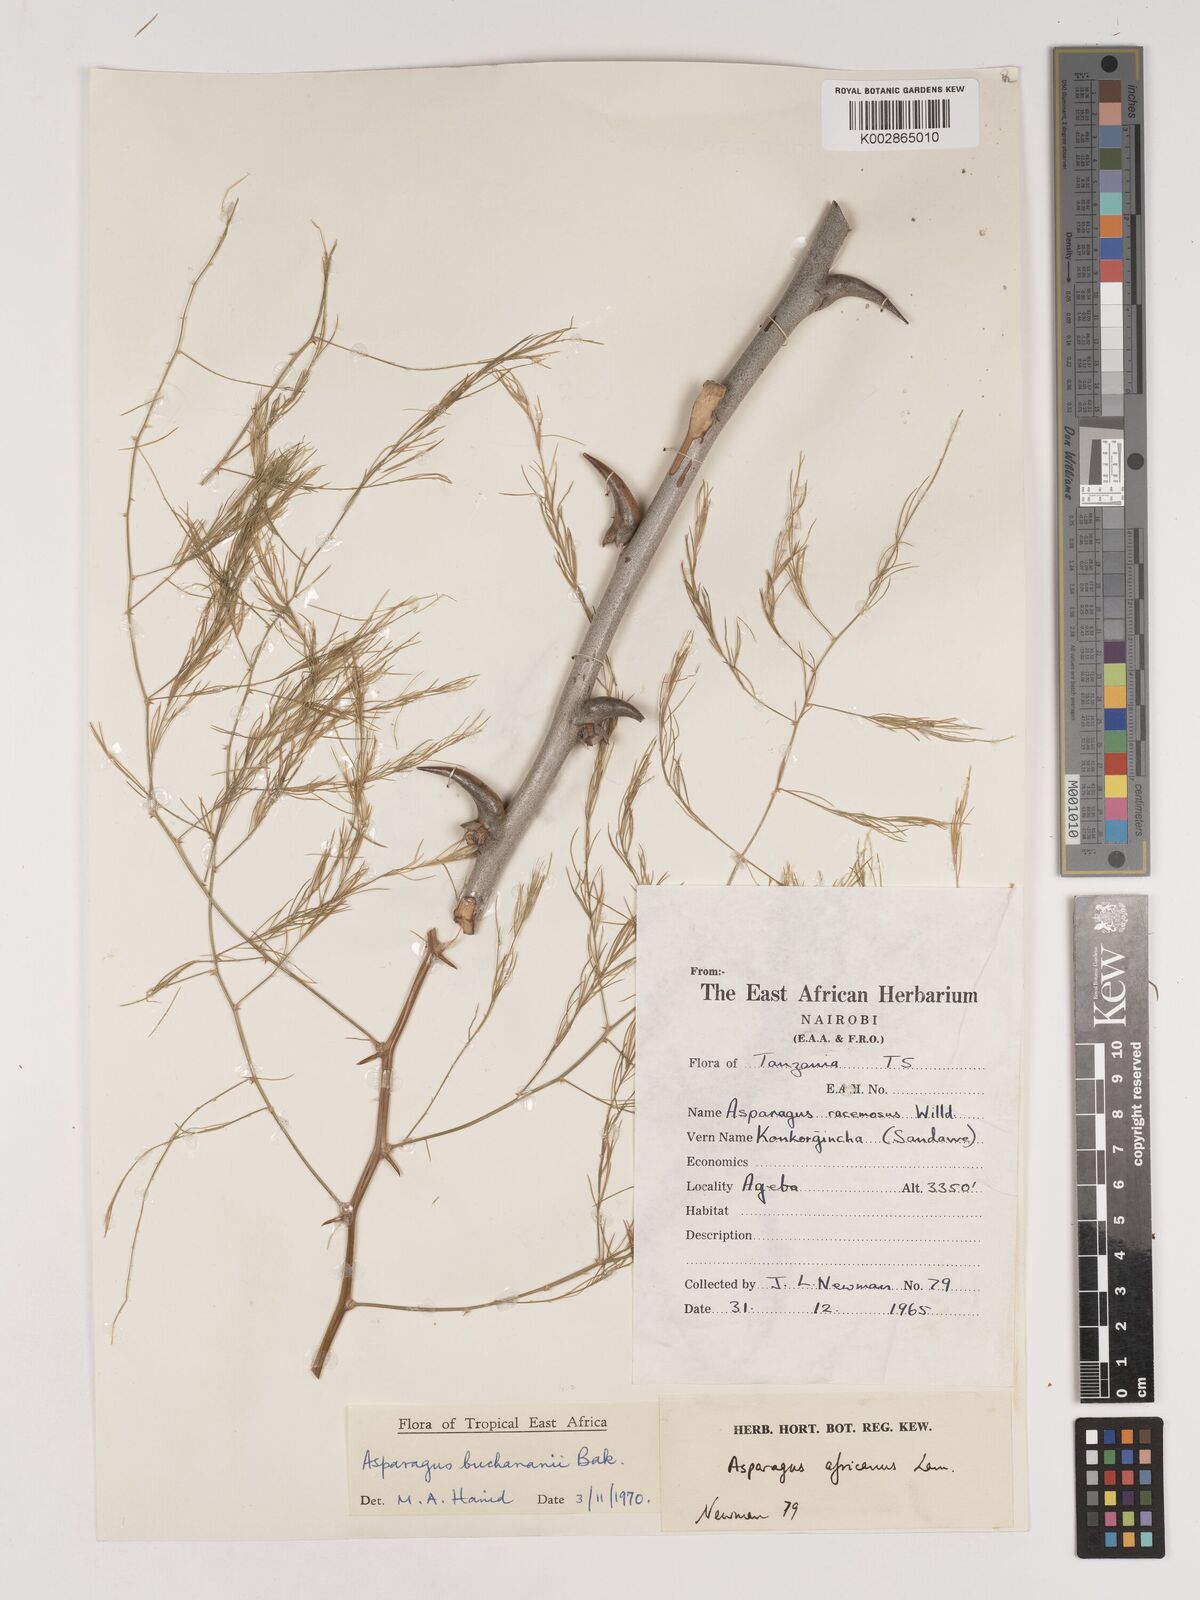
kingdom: Plantae
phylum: Tracheophyta
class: Liliopsida
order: Asparagales
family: Asparagaceae
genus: Asparagus
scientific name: Asparagus buchananii
